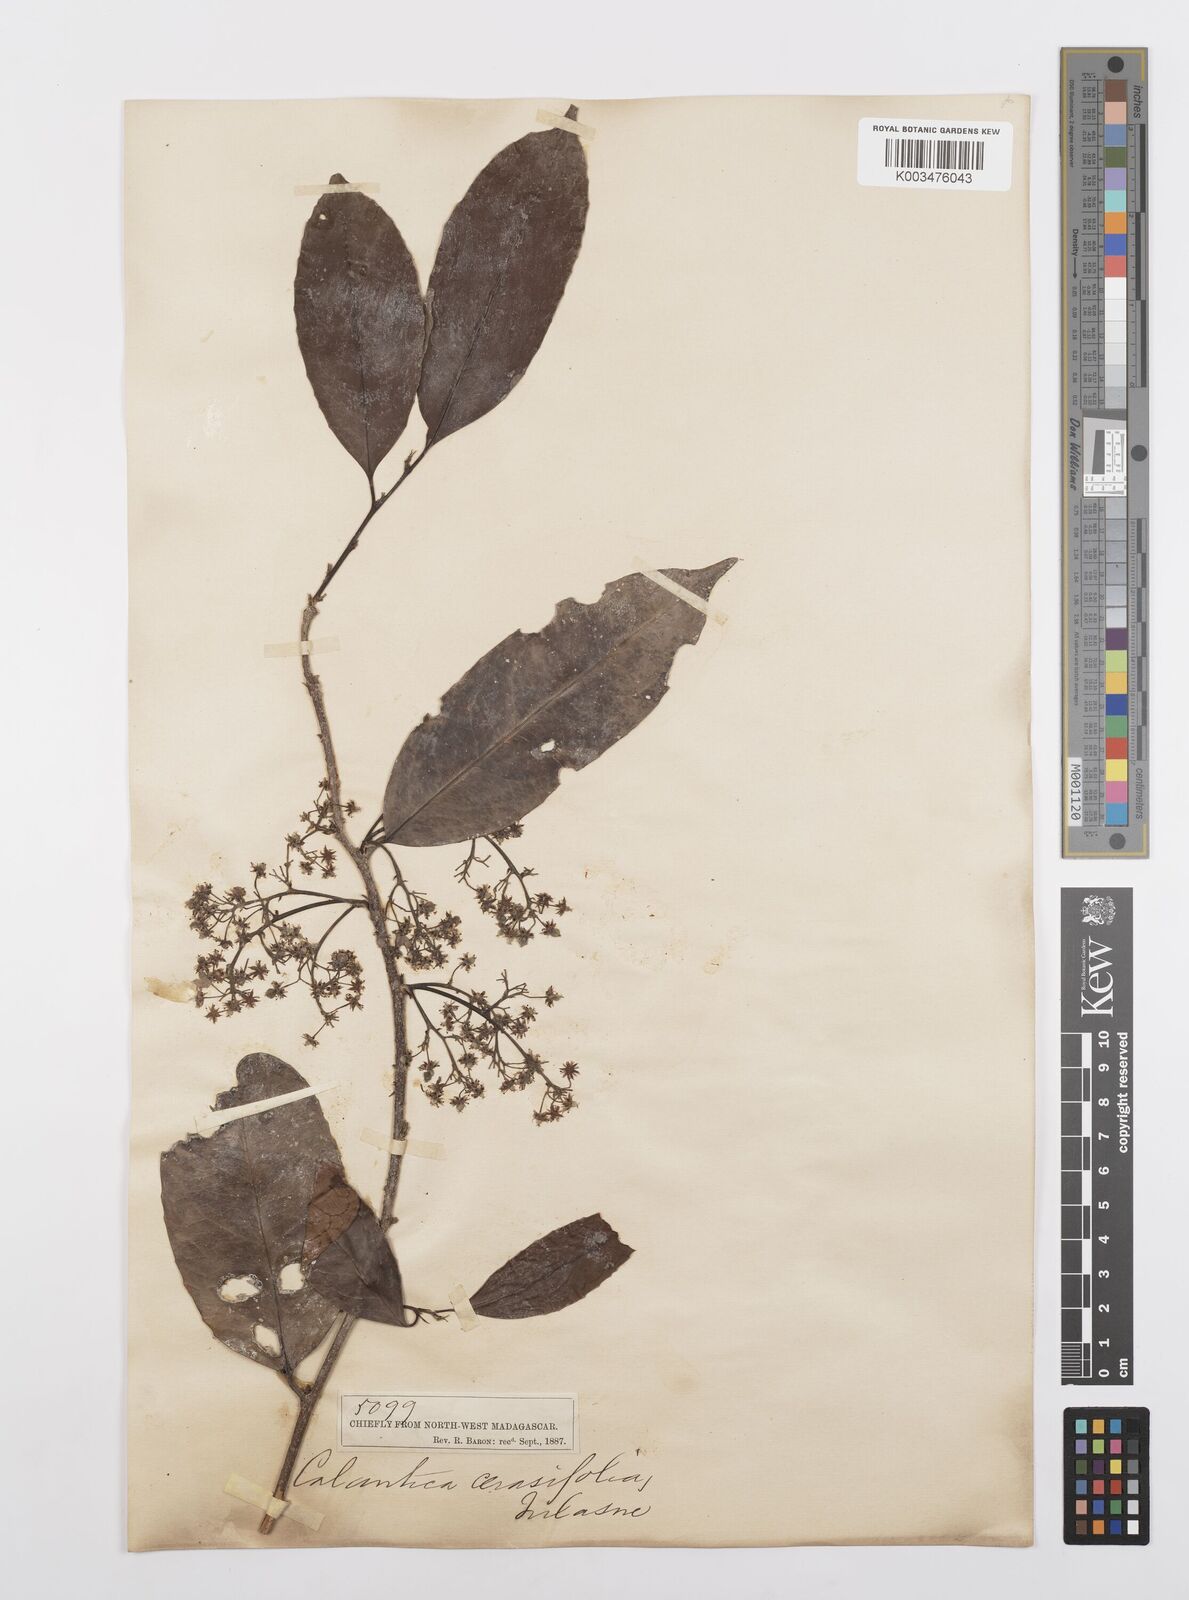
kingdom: Plantae
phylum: Tracheophyta
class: Magnoliopsida
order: Malpighiales
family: Salicaceae
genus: Calantica
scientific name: Calantica cerasifolia
